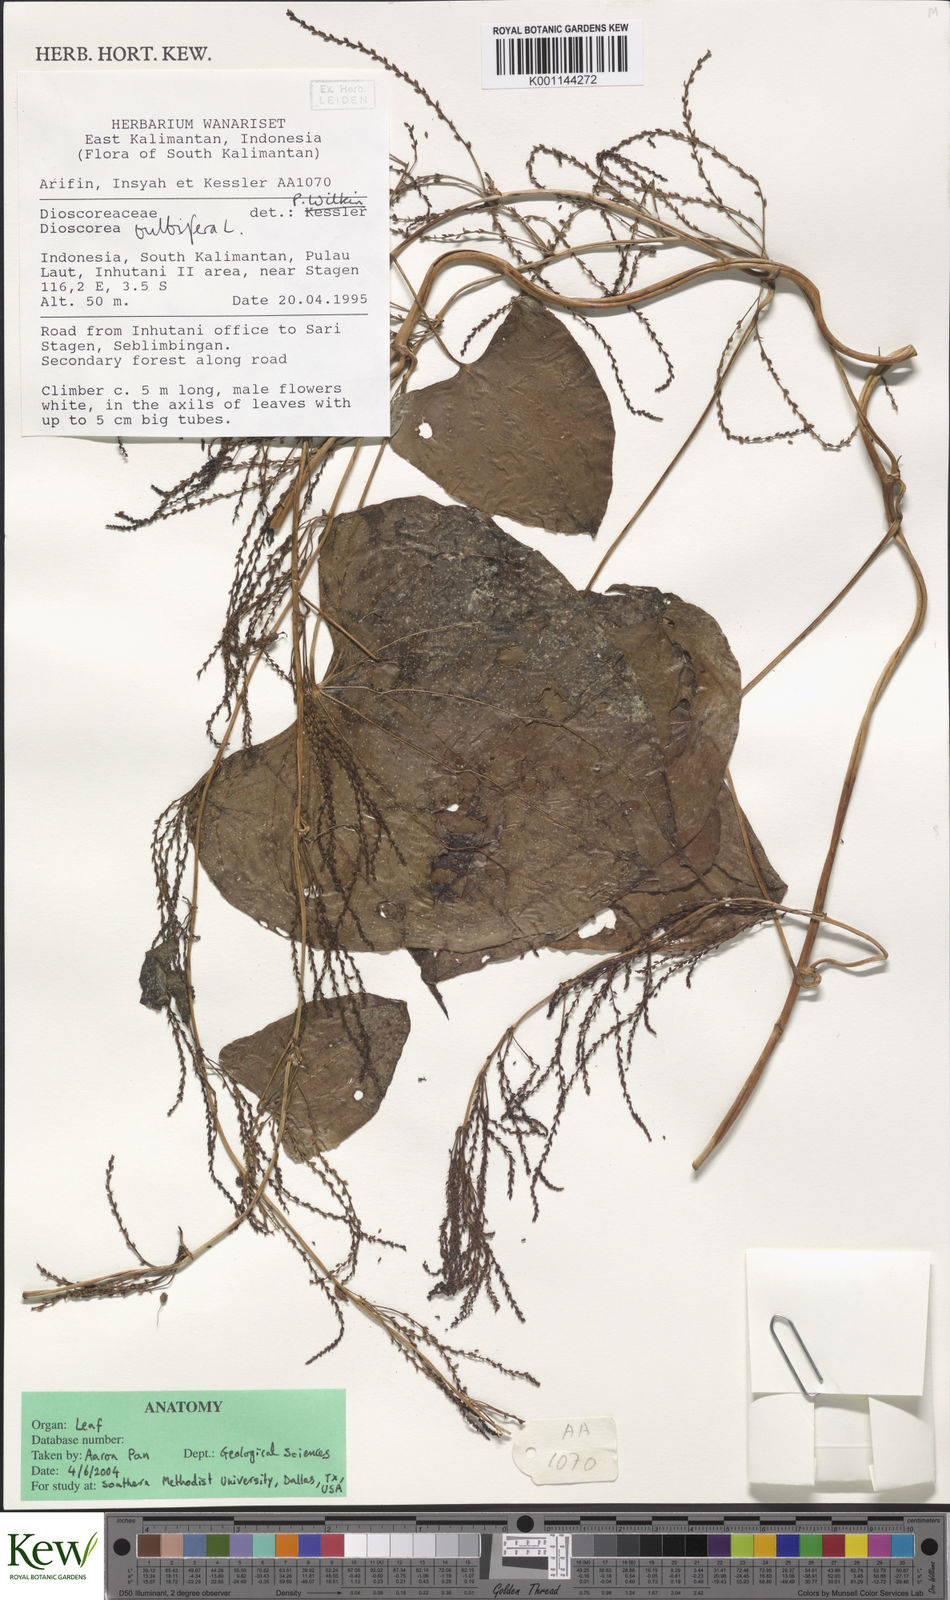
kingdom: Plantae
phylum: Tracheophyta
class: Liliopsida
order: Dioscoreales
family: Dioscoreaceae
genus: Dioscorea
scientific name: Dioscorea bulbifera
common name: Air yam
